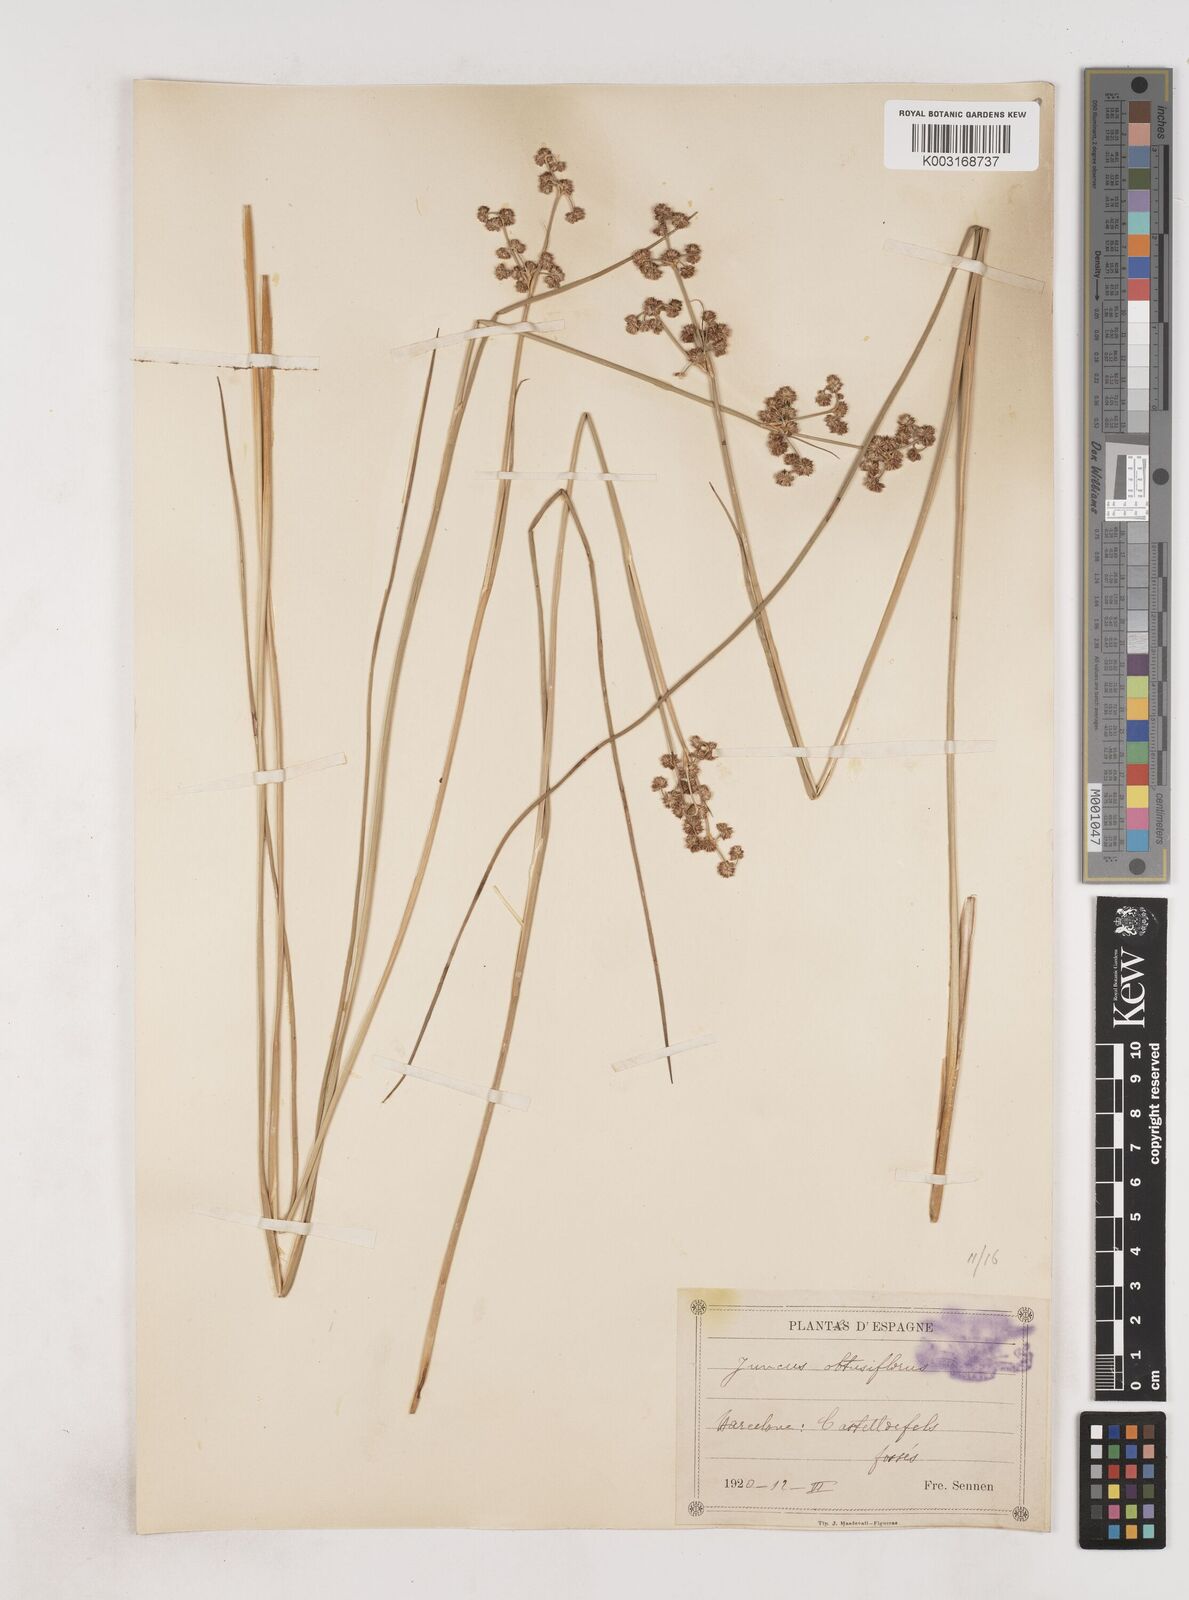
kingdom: Plantae
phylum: Tracheophyta
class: Liliopsida
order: Poales
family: Juncaceae
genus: Juncus
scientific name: Juncus subnodulosus
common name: Blunt-flowered rush
